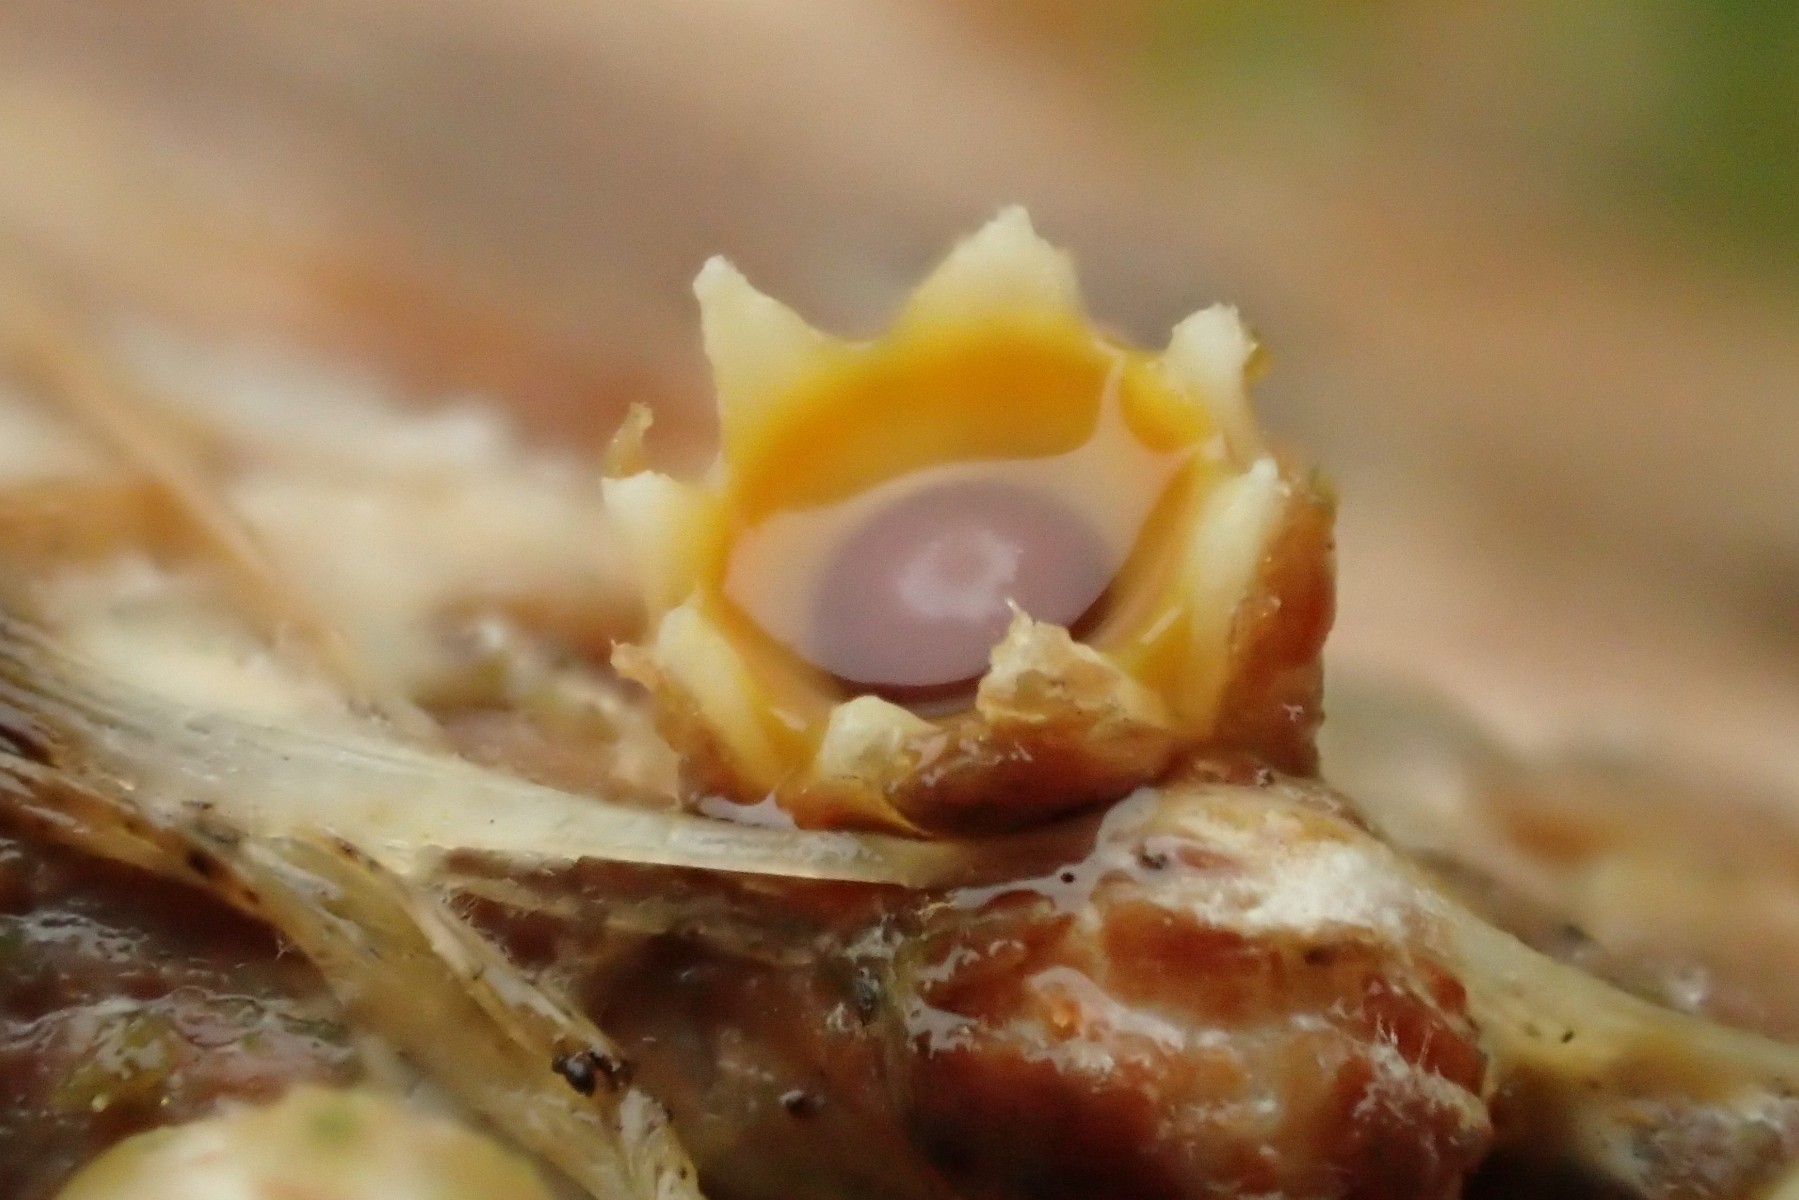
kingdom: Fungi
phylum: Basidiomycota
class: Agaricomycetes
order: Geastrales
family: Geastraceae
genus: Sphaerobolus
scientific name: Sphaerobolus stellatus
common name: bombekaster
